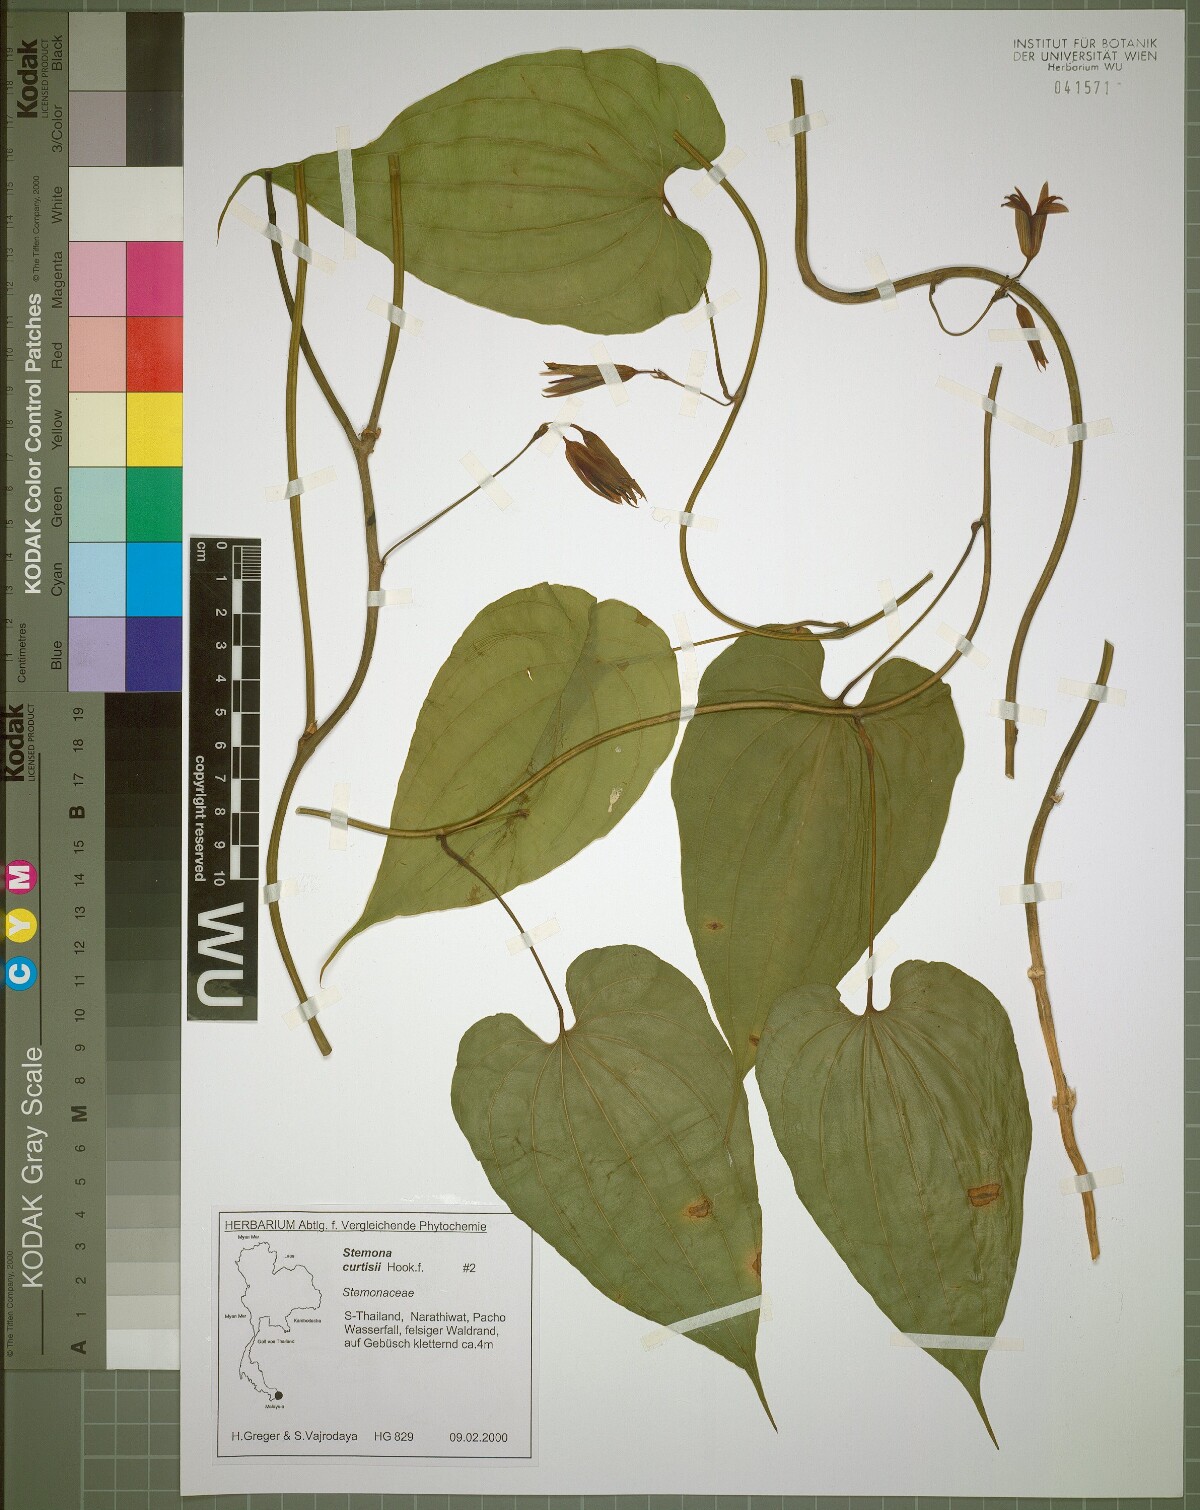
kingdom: Plantae
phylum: Tracheophyta
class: Liliopsida
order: Pandanales
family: Stemonaceae
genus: Stemona
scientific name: Stemona curtisii
